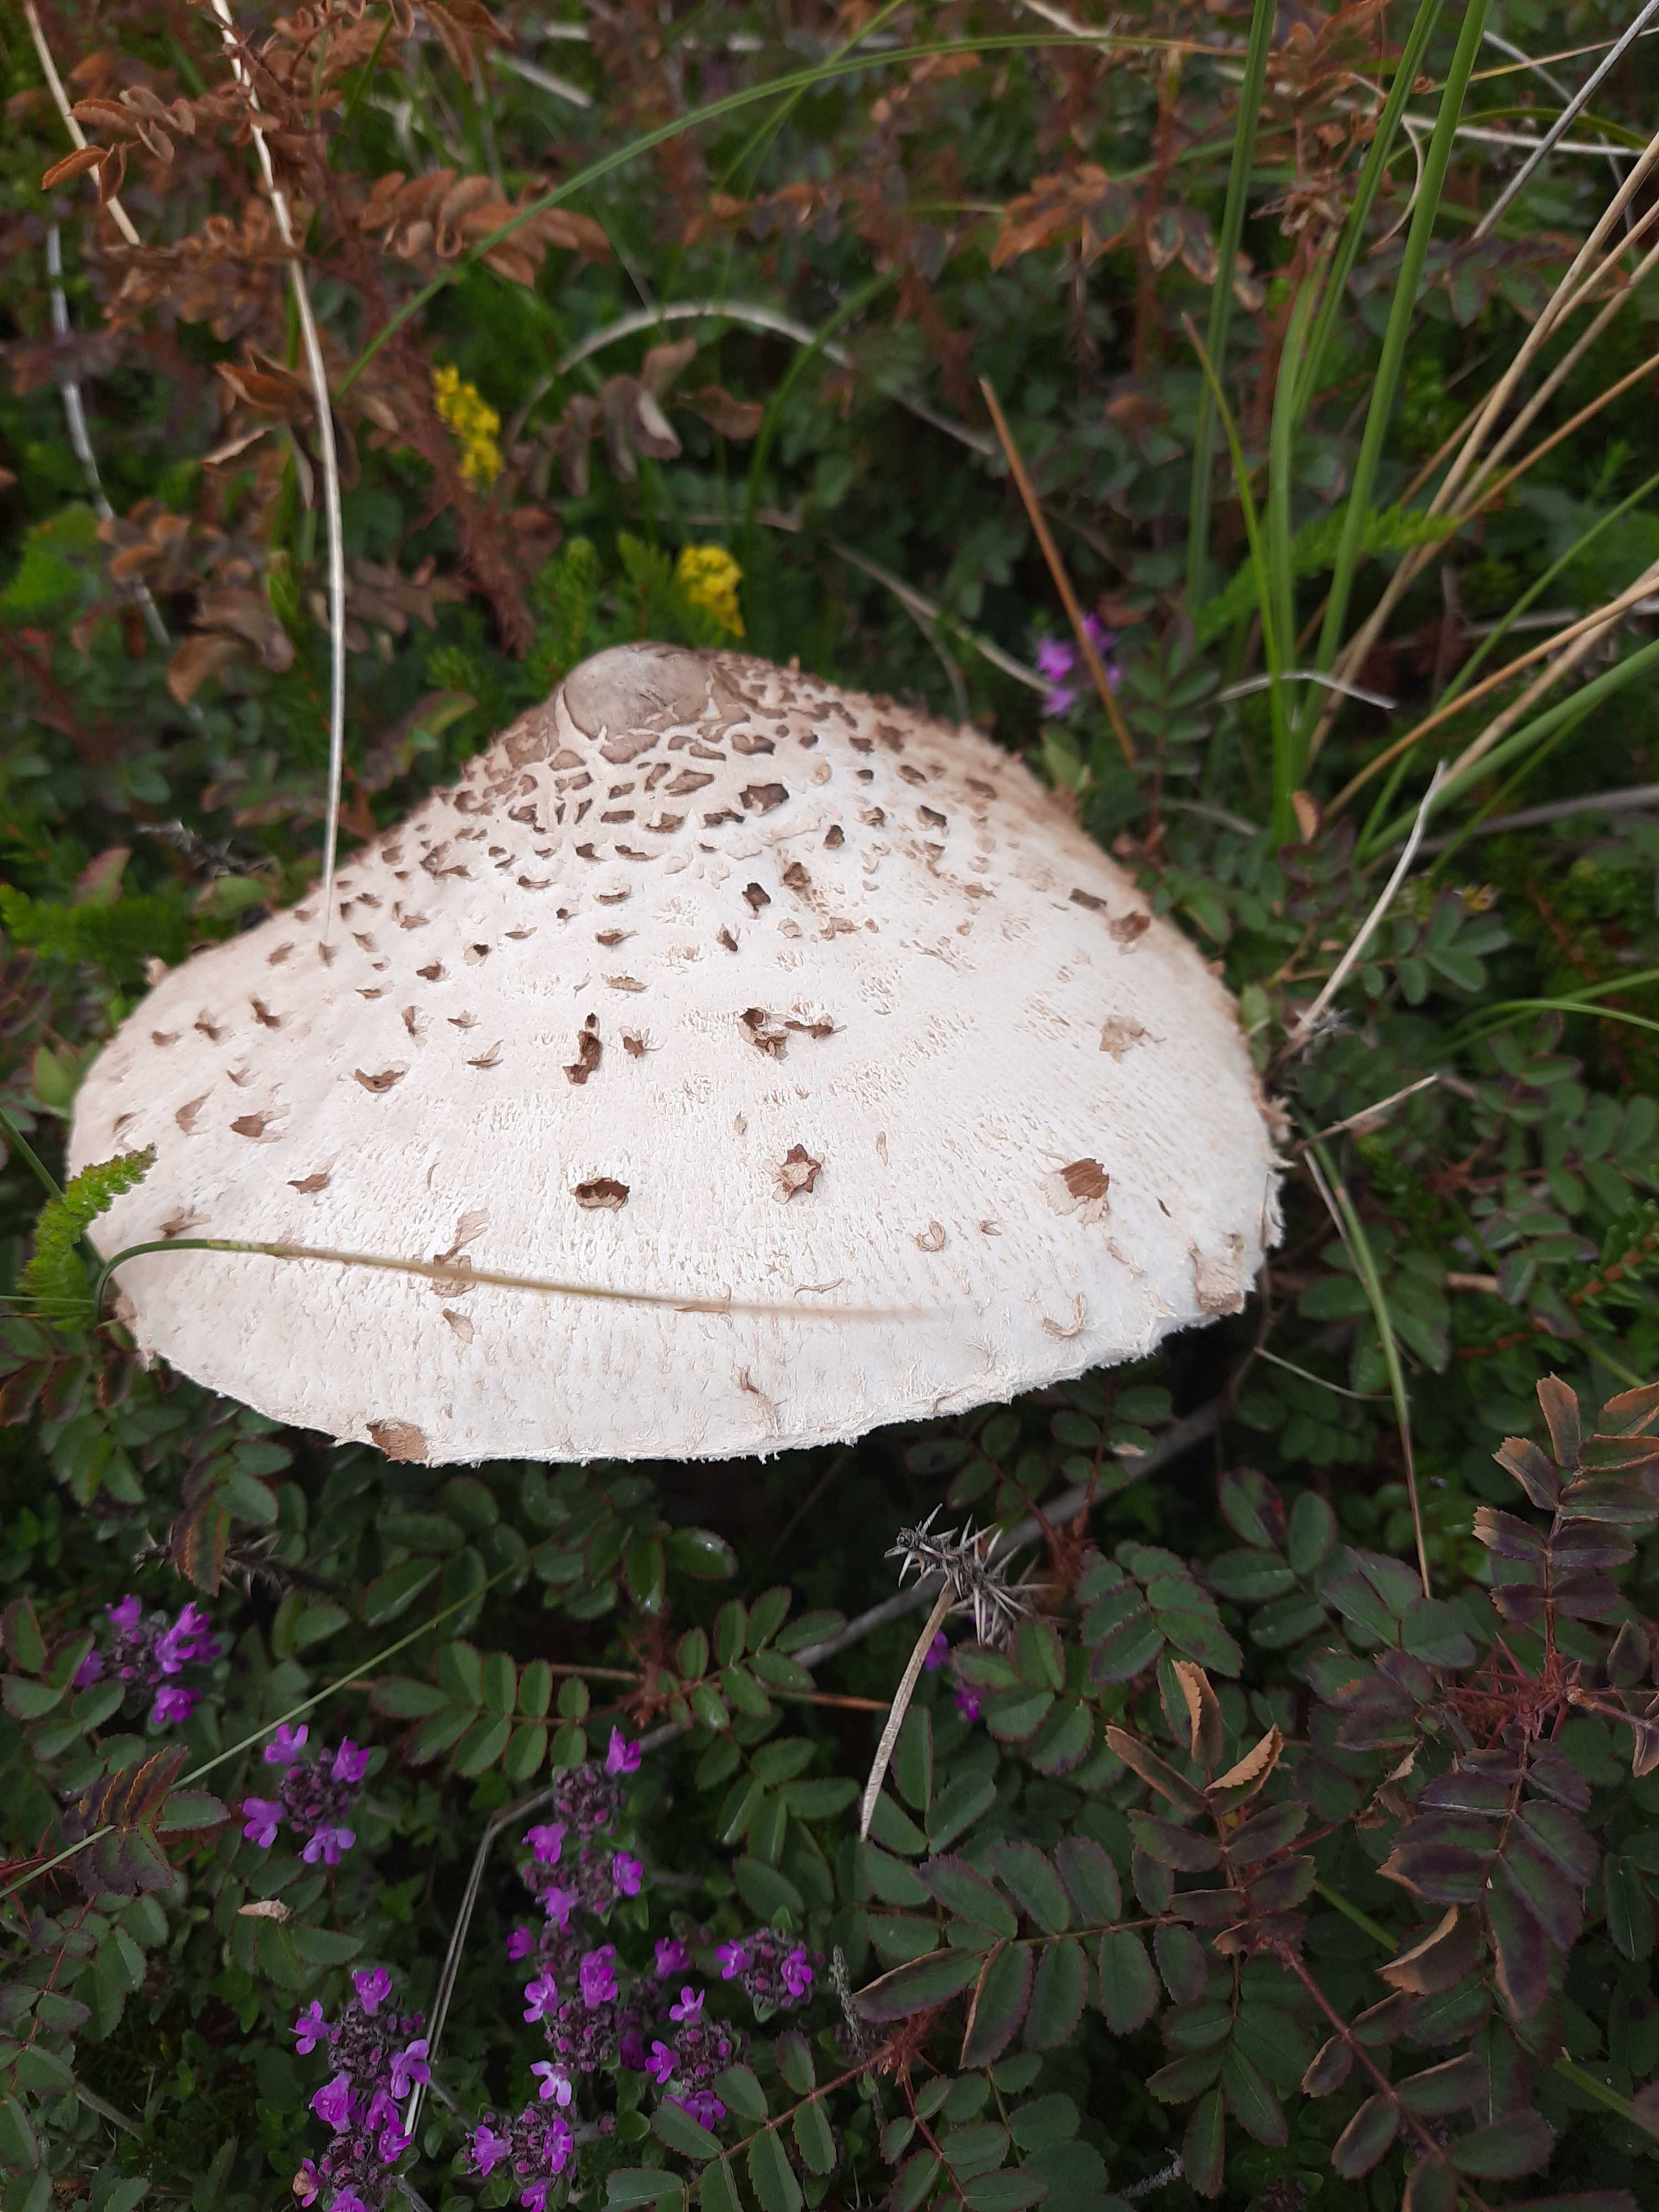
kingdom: Fungi
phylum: Basidiomycota
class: Agaricomycetes
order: Agaricales
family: Agaricaceae
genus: Macrolepiota
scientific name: Macrolepiota procera
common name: stor kæmpeparasolhat
